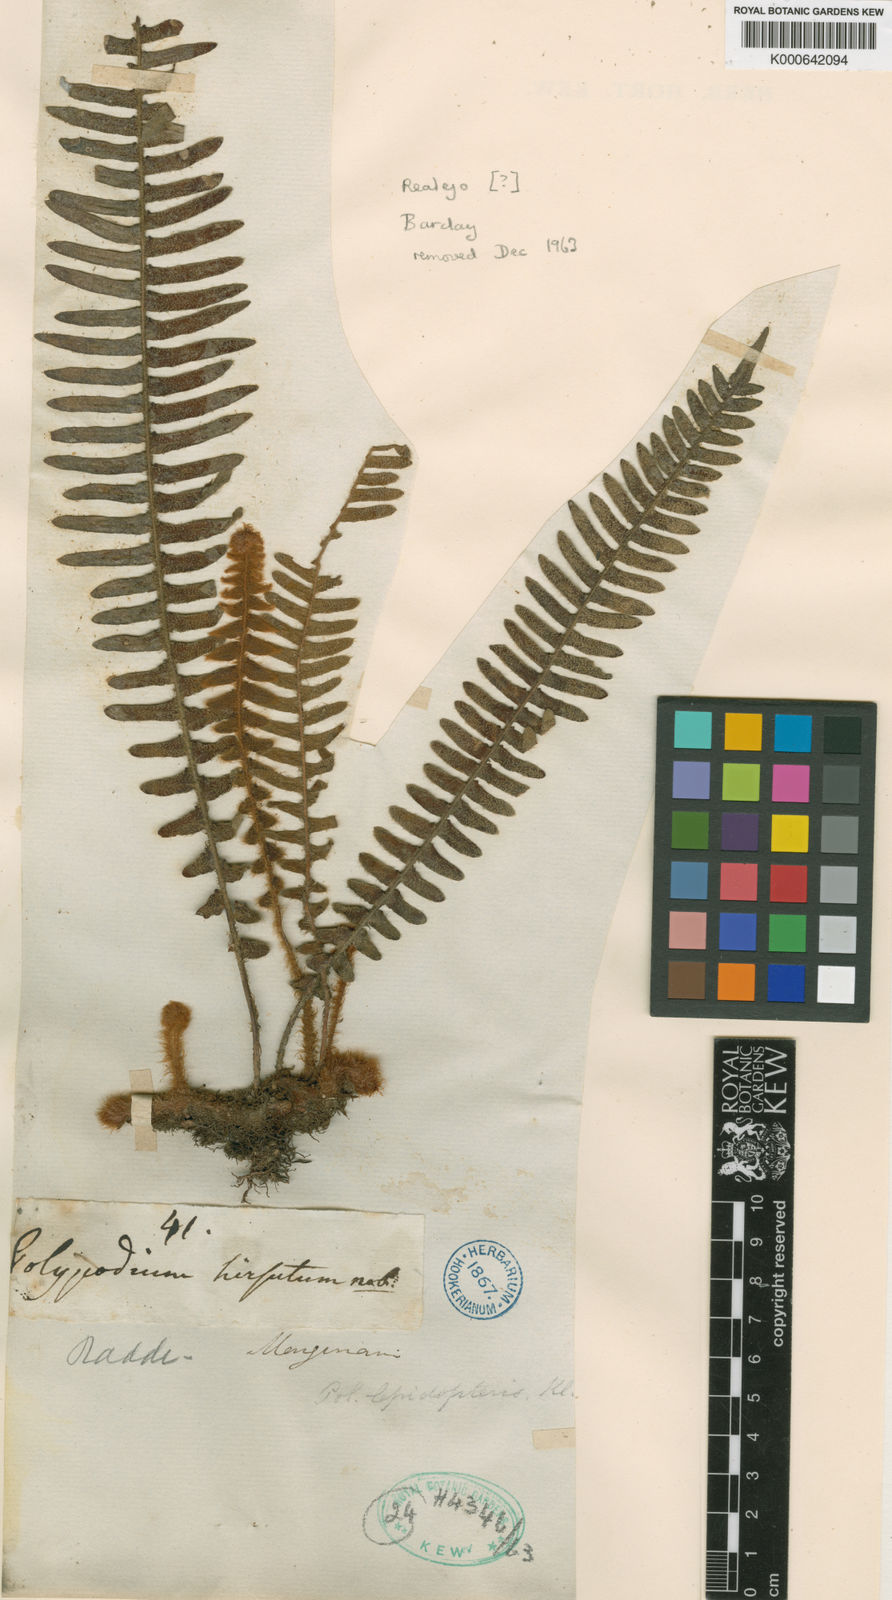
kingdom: Plantae
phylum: Tracheophyta
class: Polypodiopsida
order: Polypodiales
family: Polypodiaceae
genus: Pleopeltis
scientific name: Pleopeltis hirsutissima
